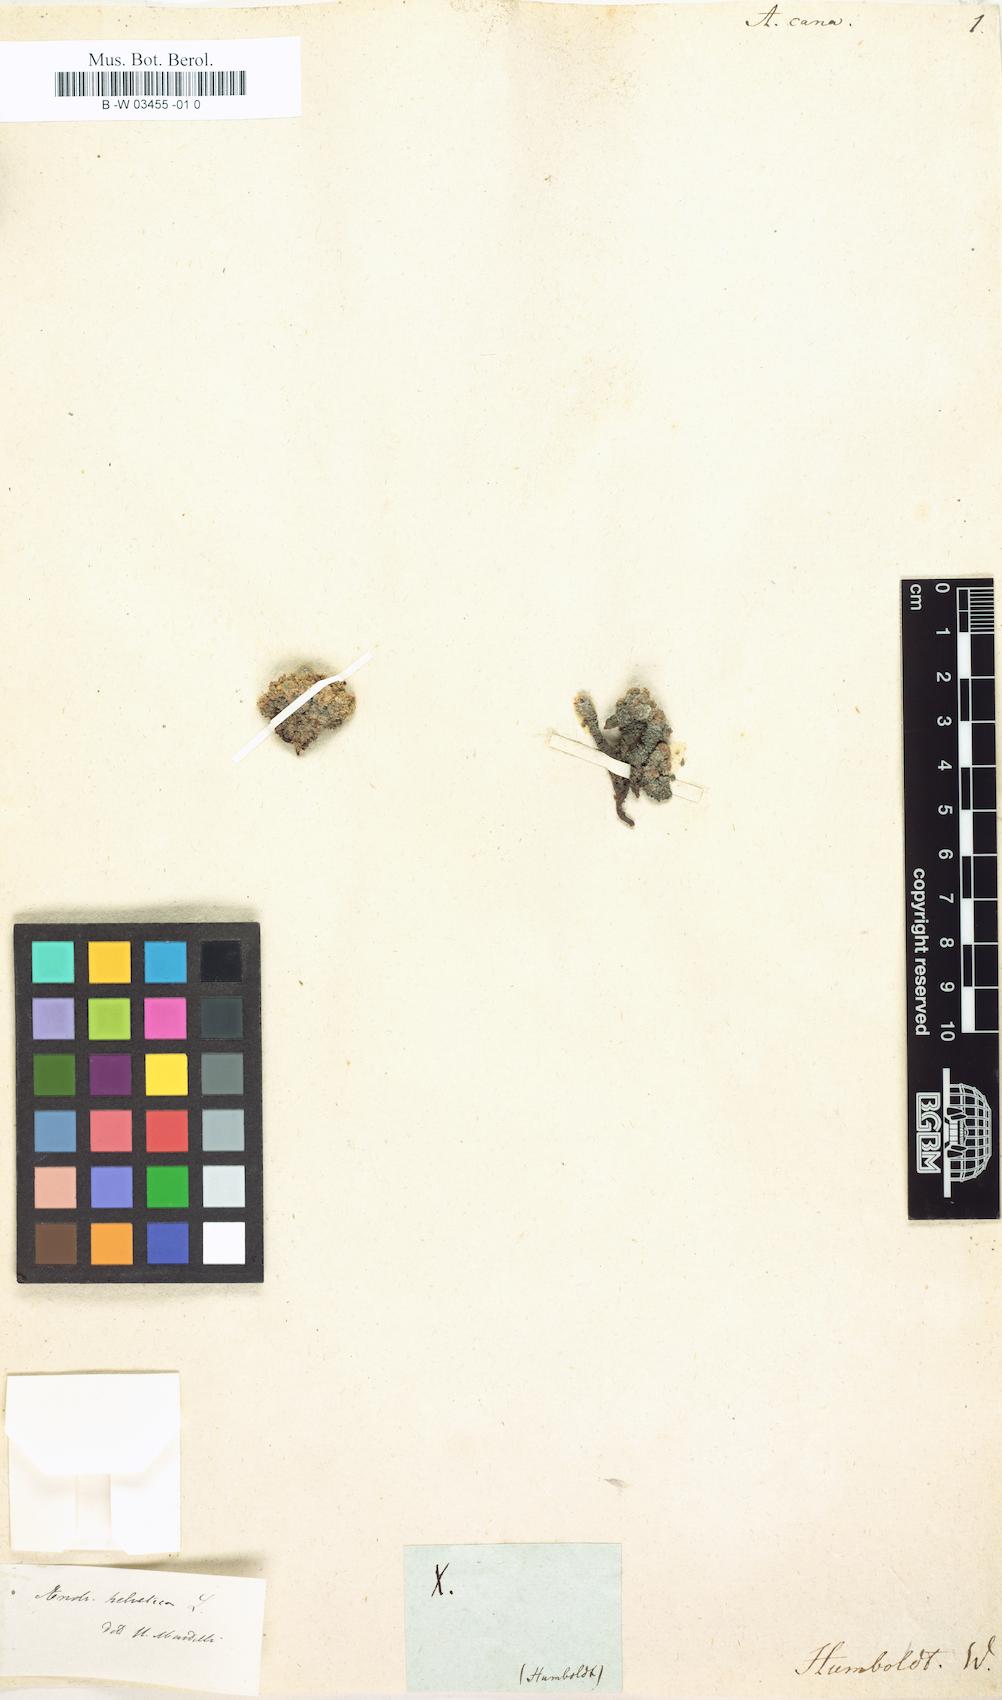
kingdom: Plantae
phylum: Tracheophyta
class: Magnoliopsida
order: Ericales
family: Primulaceae
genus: Primula
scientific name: Primula Aretia cana
